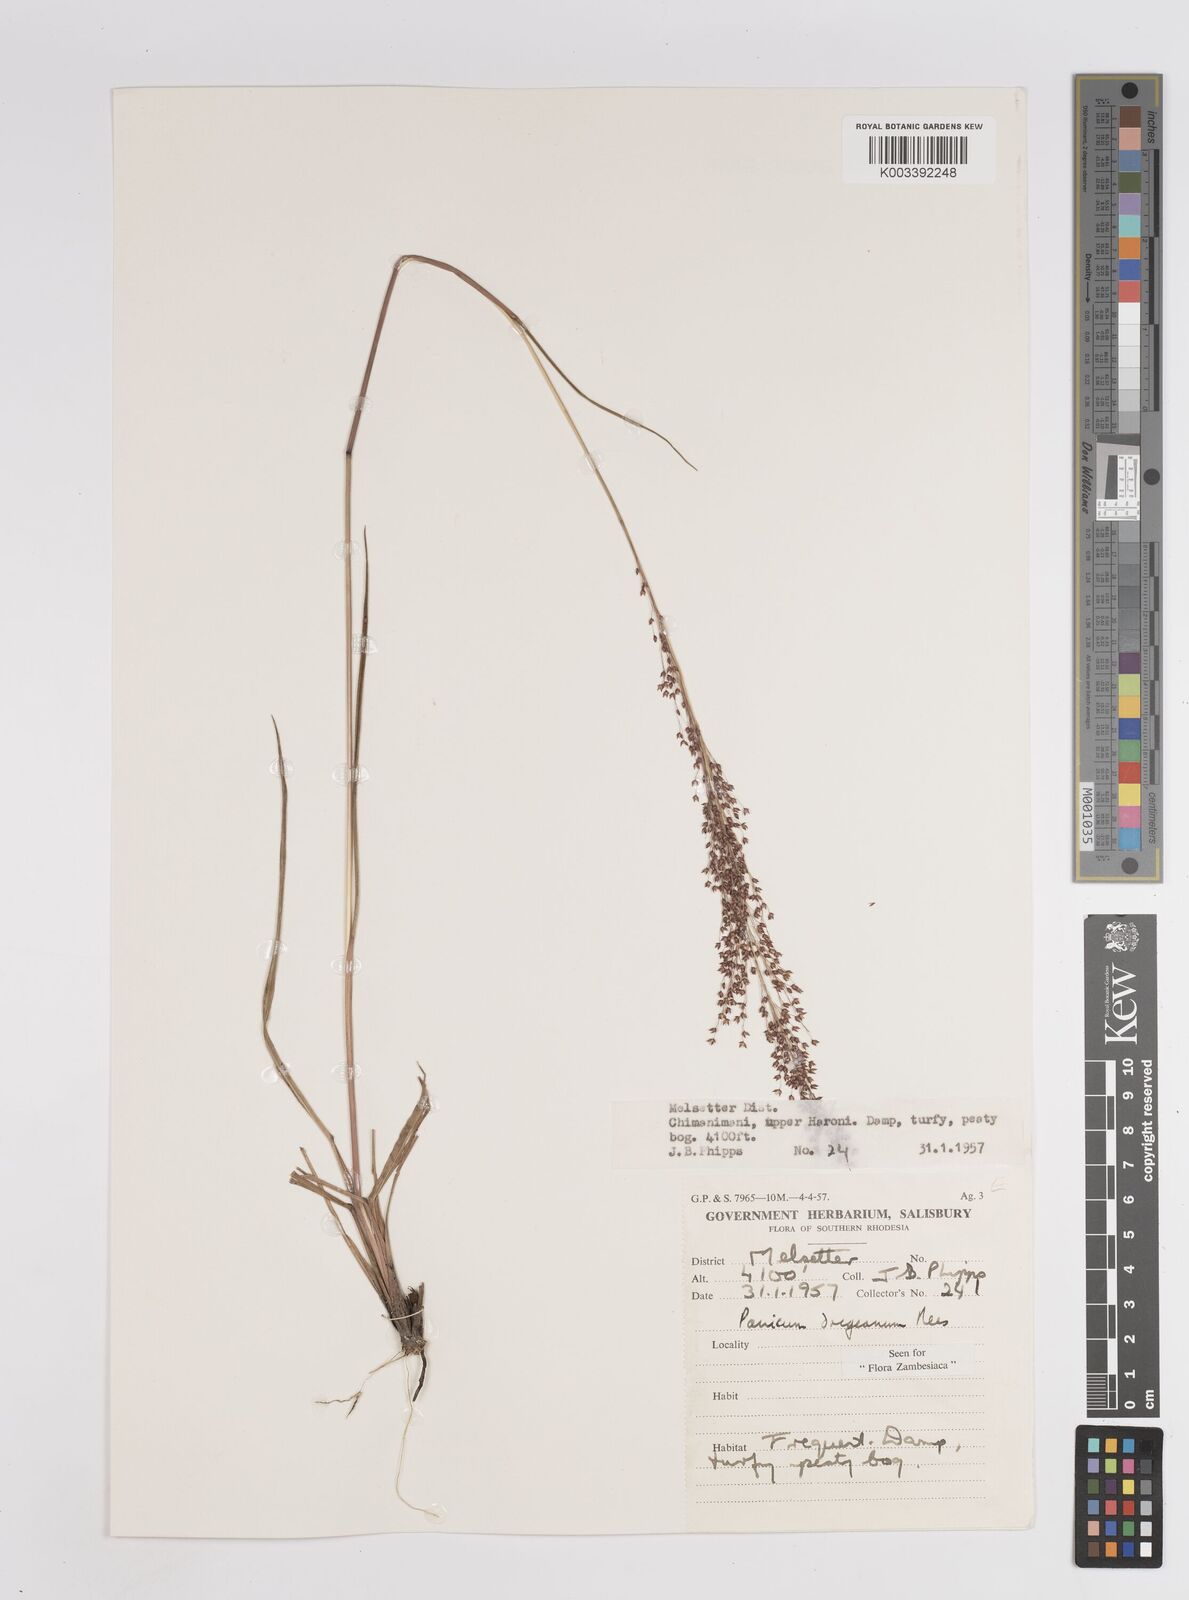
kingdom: Plantae
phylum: Tracheophyta
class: Liliopsida
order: Poales
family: Poaceae
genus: Panicum
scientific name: Panicum dregeanum
